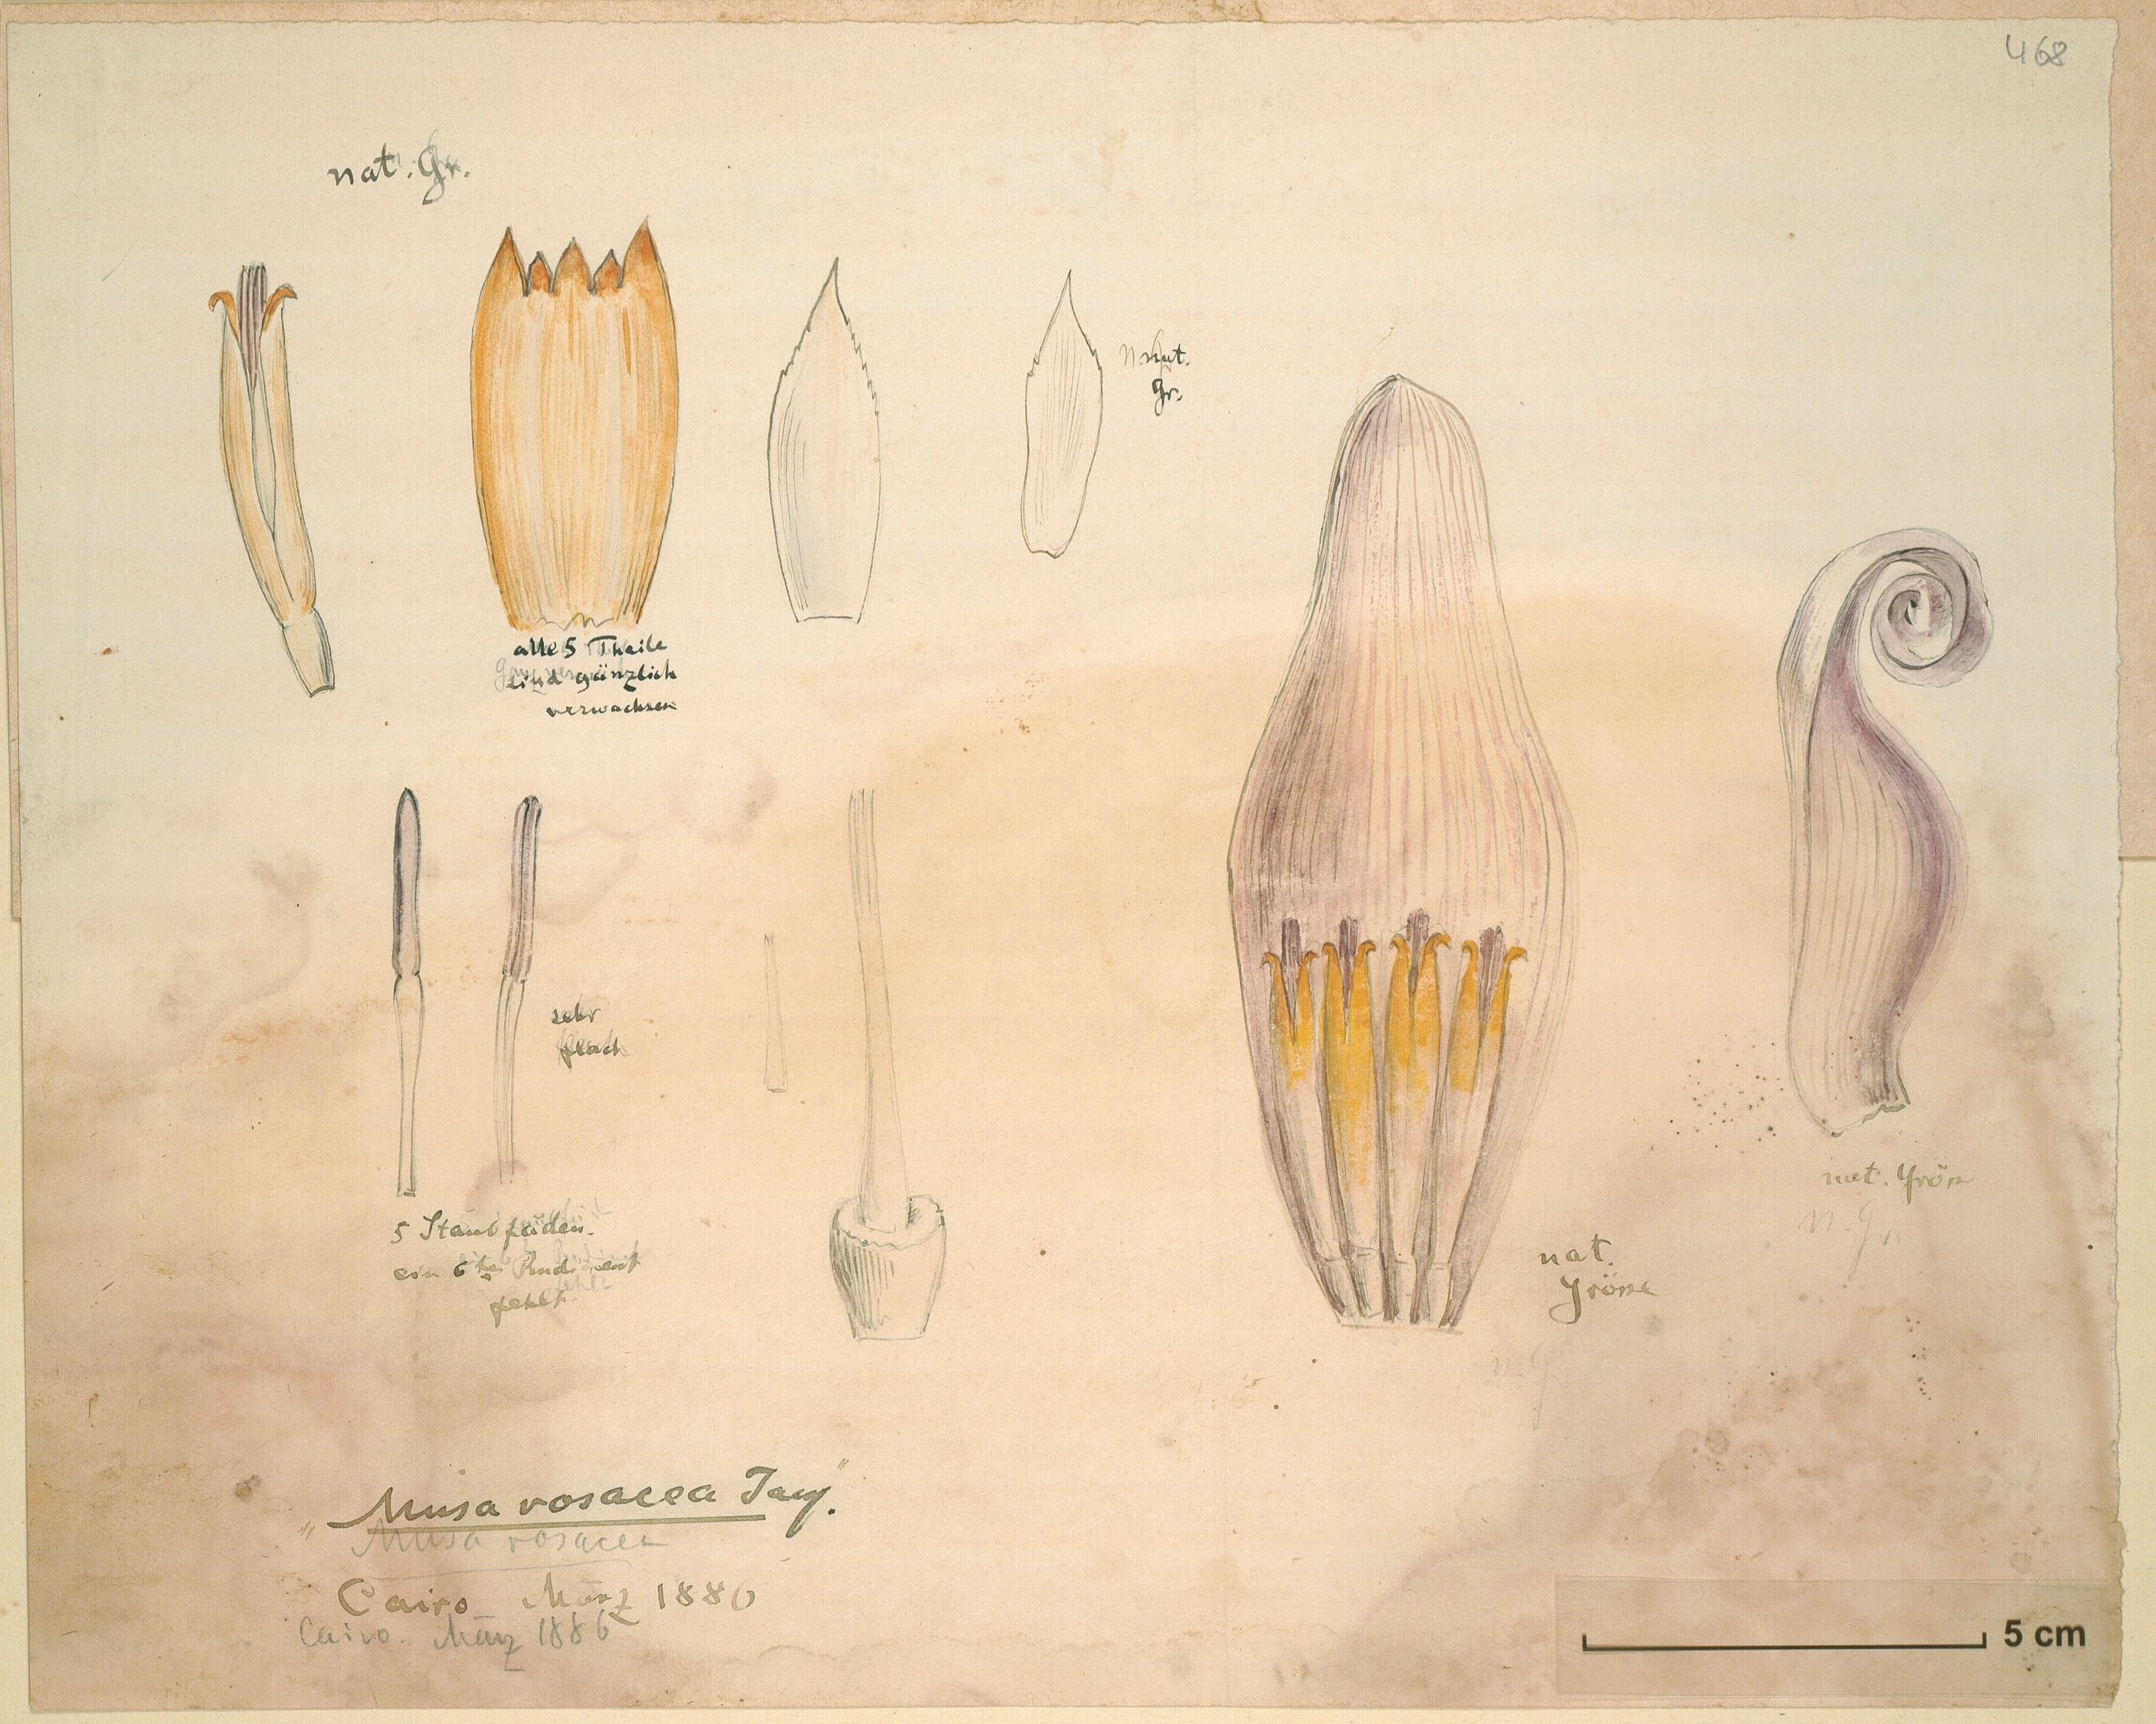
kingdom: Plantae
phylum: Tracheophyta
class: Liliopsida
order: Zingiberales
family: Musaceae
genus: Musa
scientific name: Musa balbisiana
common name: Plantain
